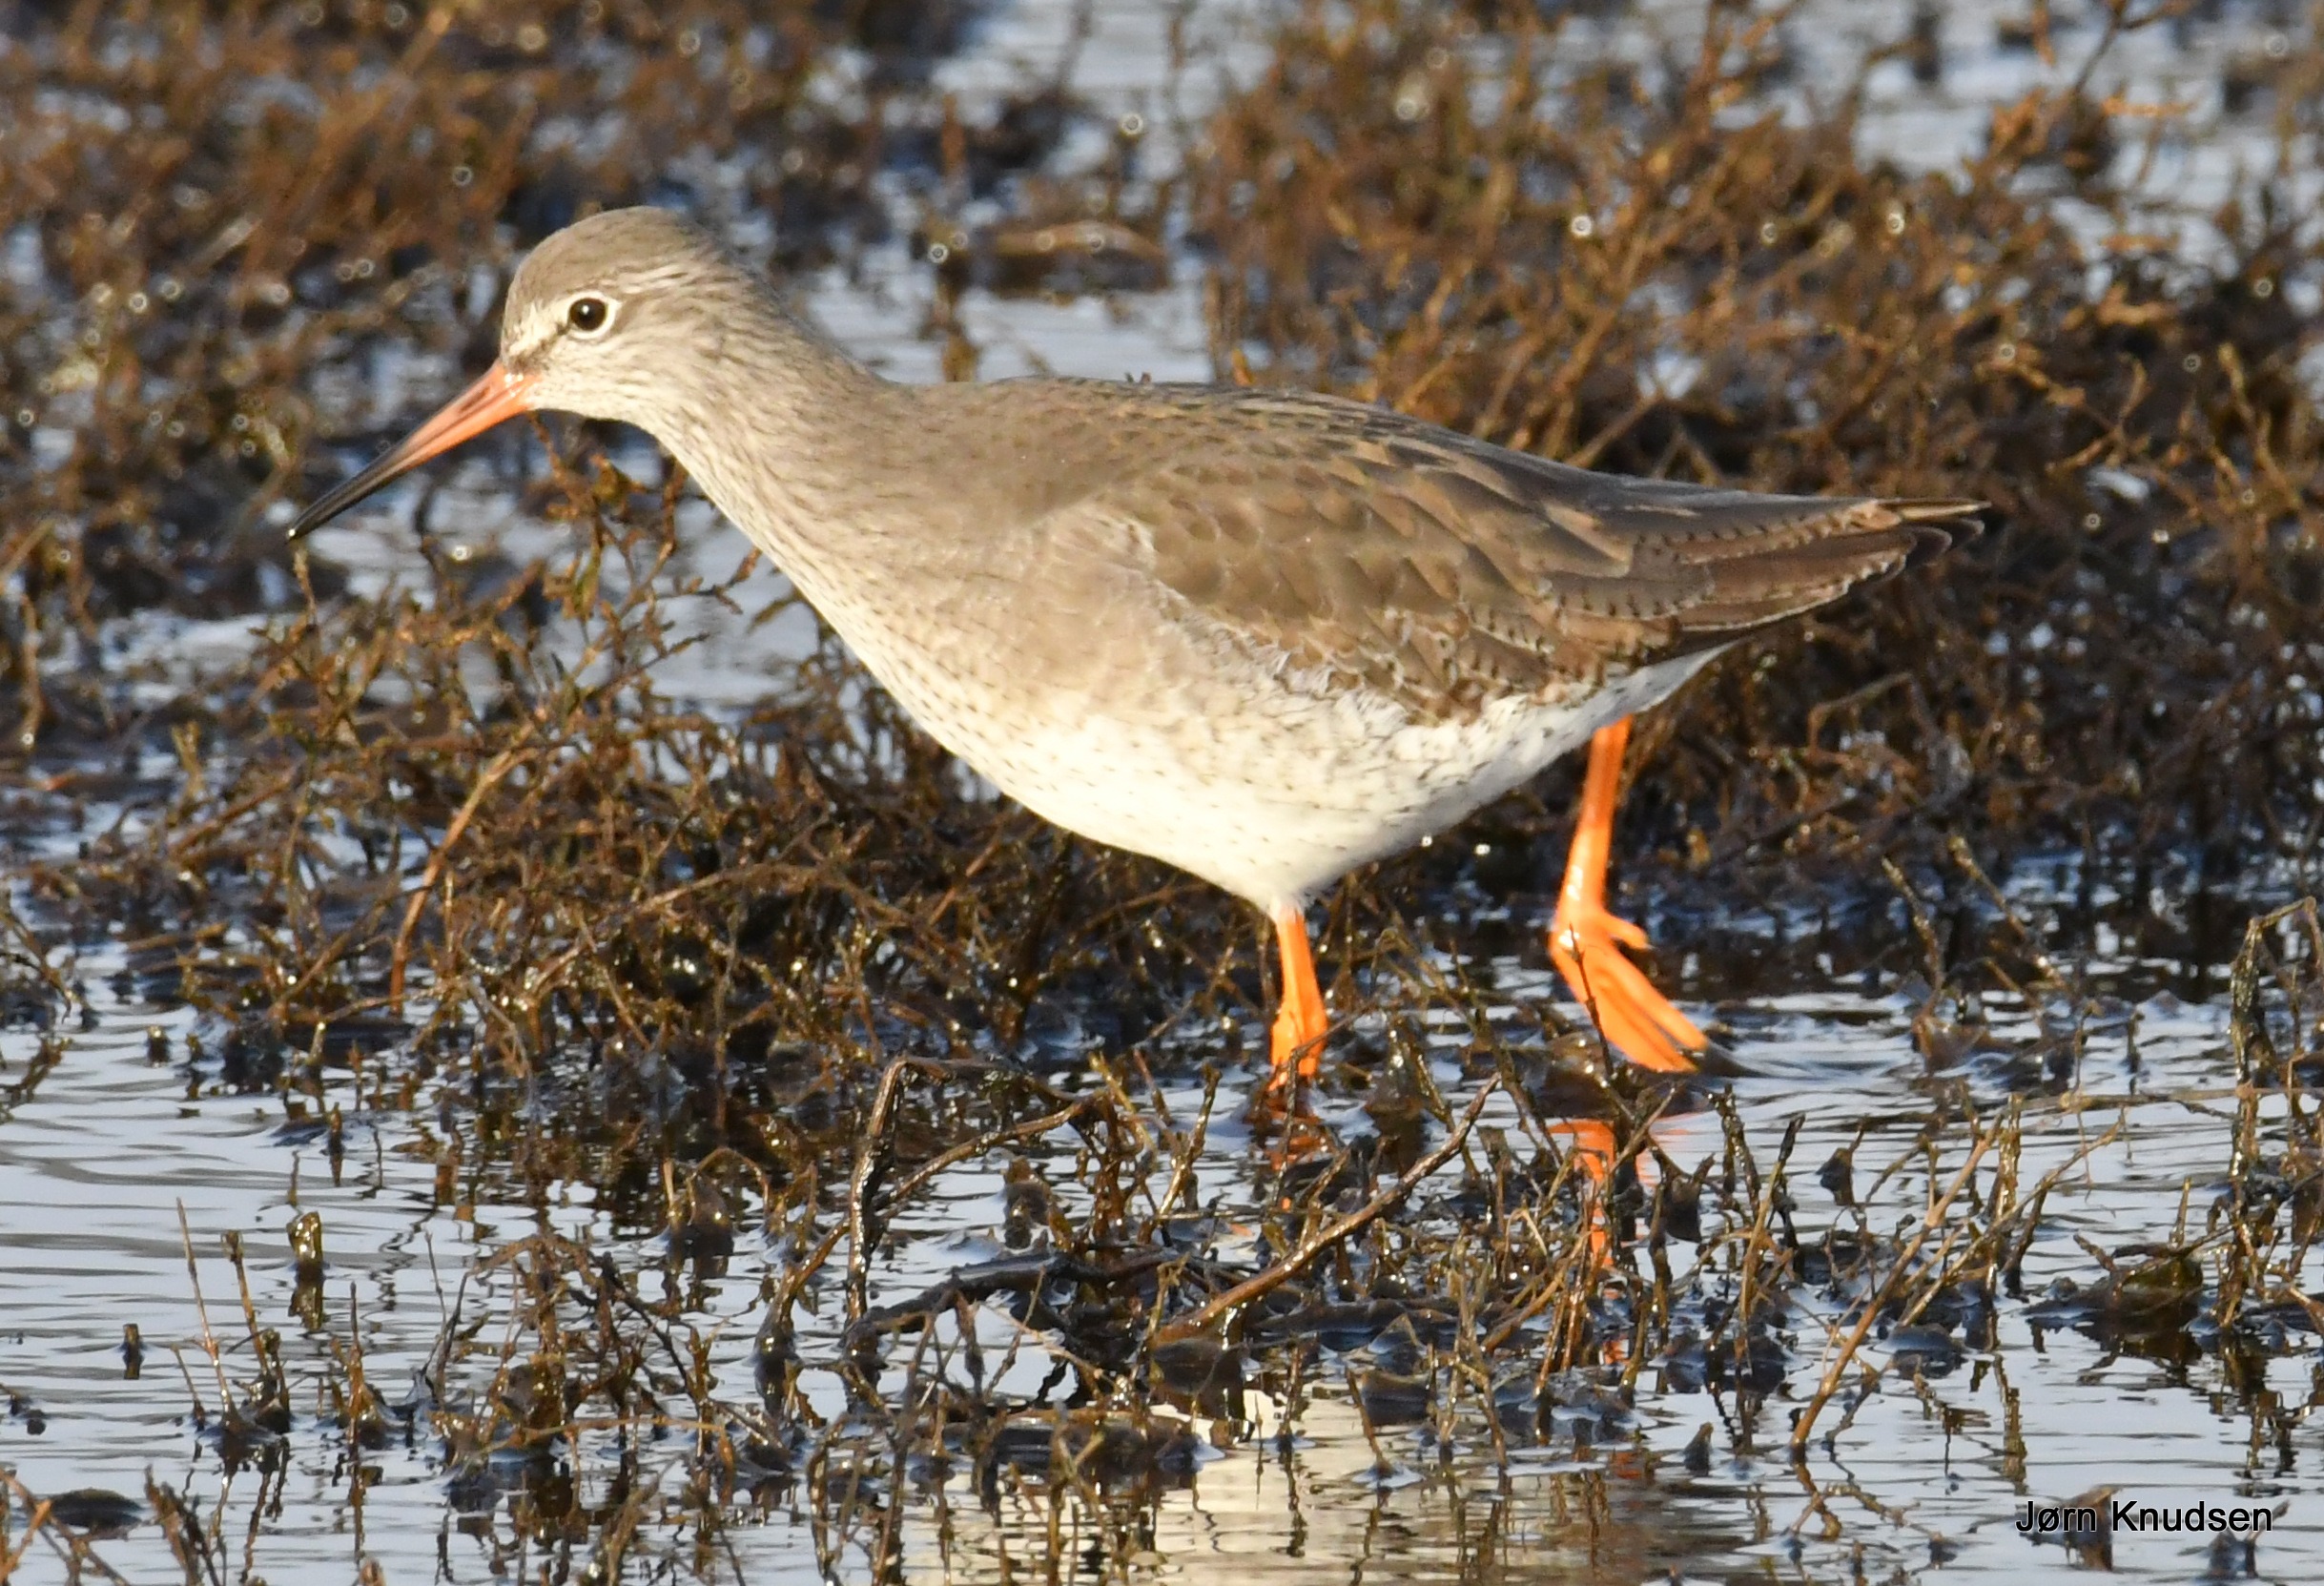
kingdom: Animalia
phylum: Chordata
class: Aves
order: Charadriiformes
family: Scolopacidae
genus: Tringa
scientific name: Tringa totanus
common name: Rødben
